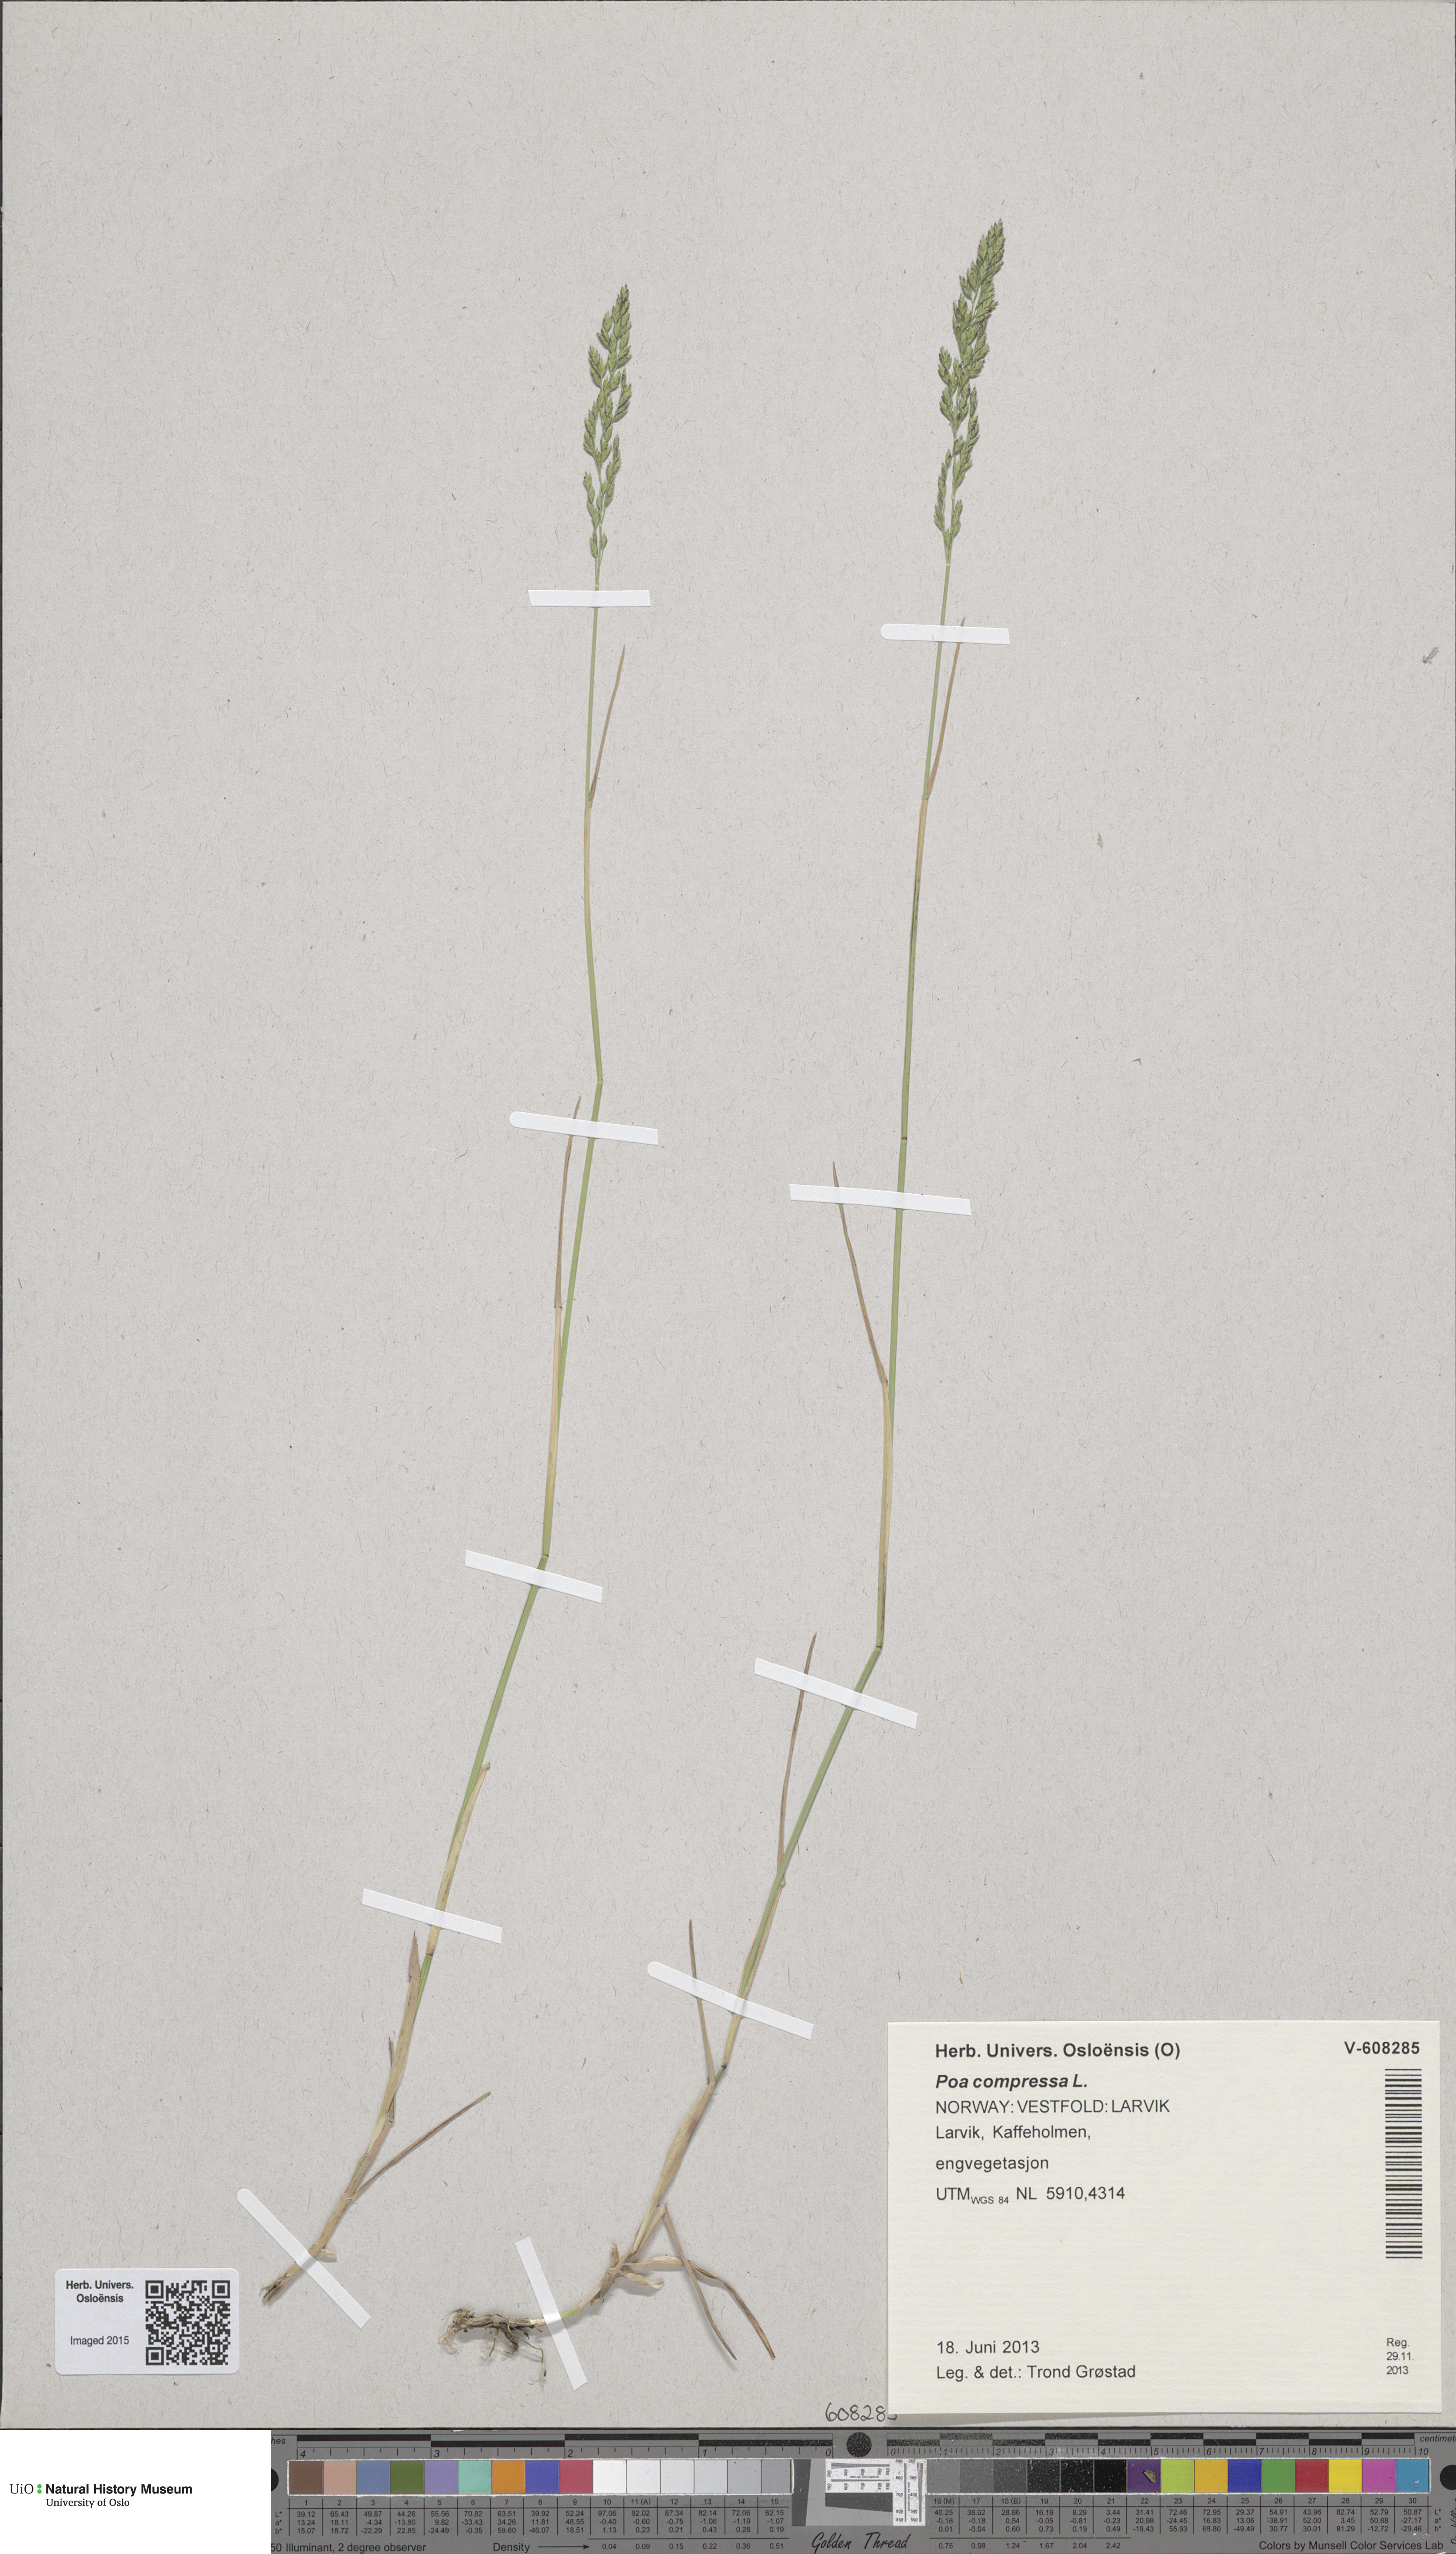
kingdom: Plantae
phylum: Tracheophyta
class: Liliopsida
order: Poales
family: Poaceae
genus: Poa
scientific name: Poa compressa
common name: Canada bluegrass
